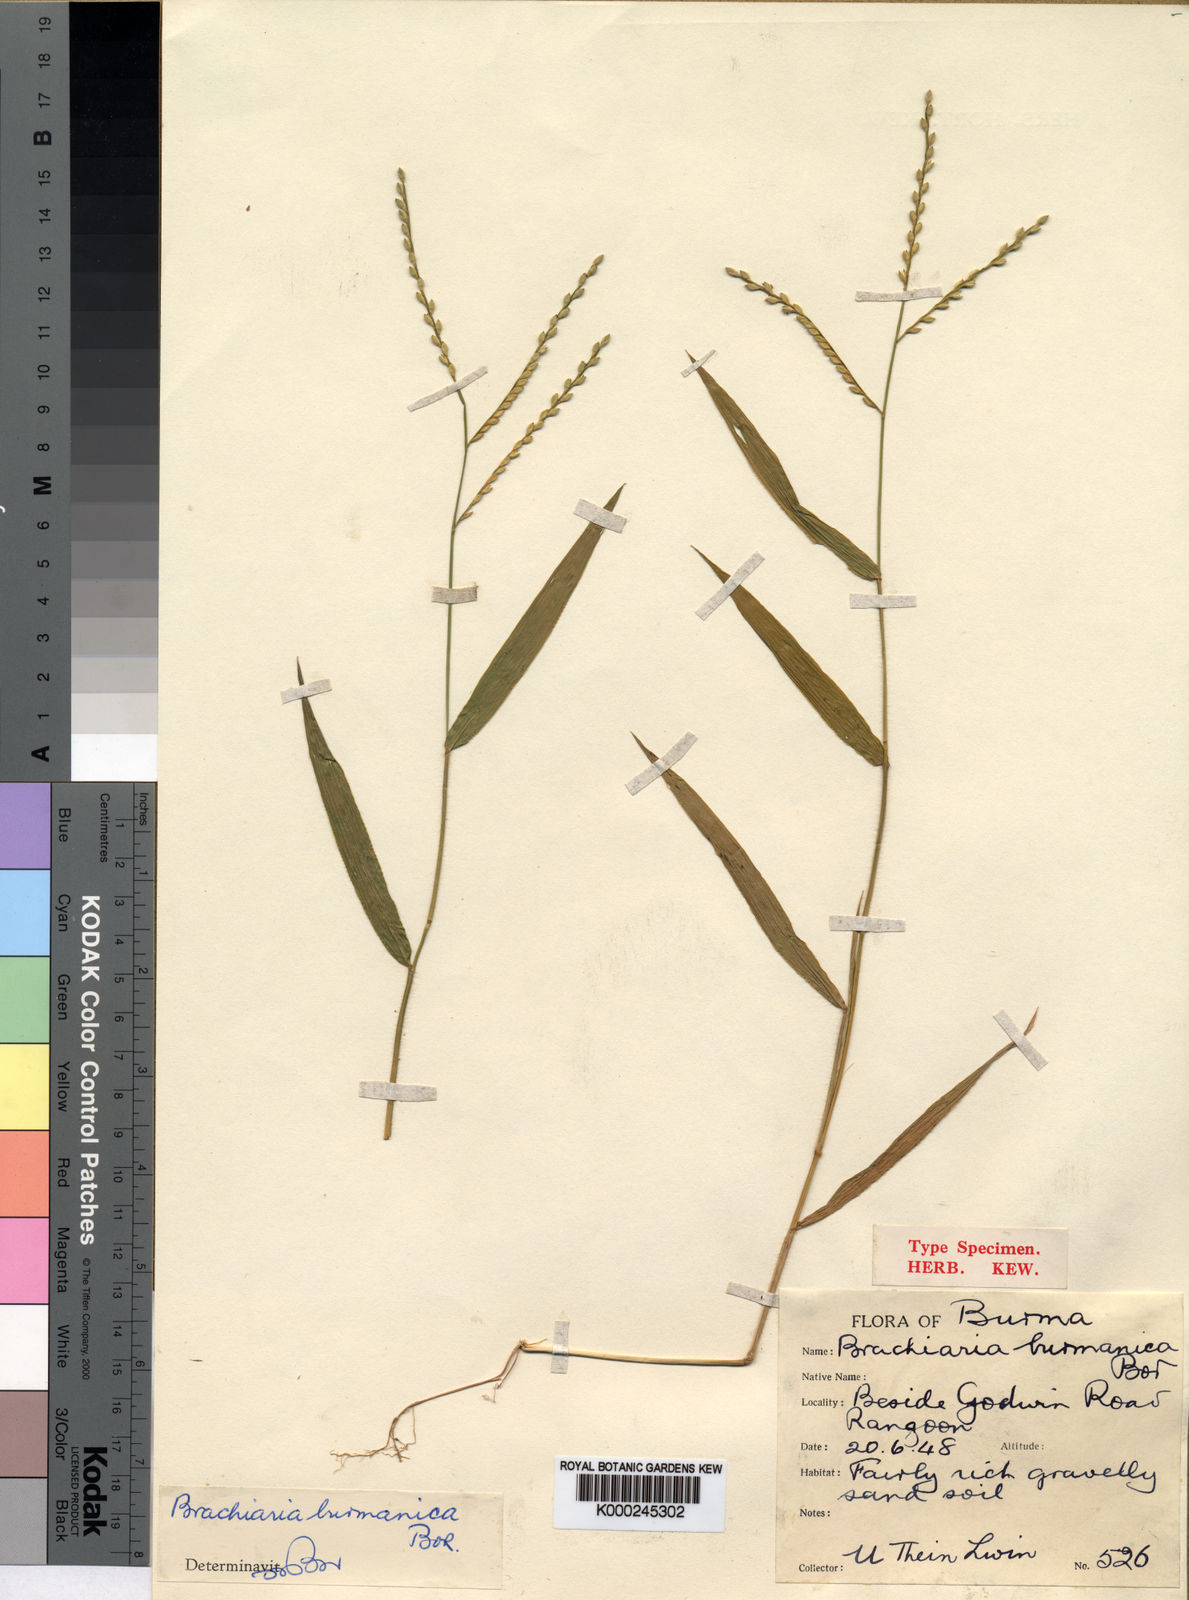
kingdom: Plantae
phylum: Tracheophyta
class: Liliopsida
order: Poales
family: Poaceae
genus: Urochloa
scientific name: Urochloa burmanica
